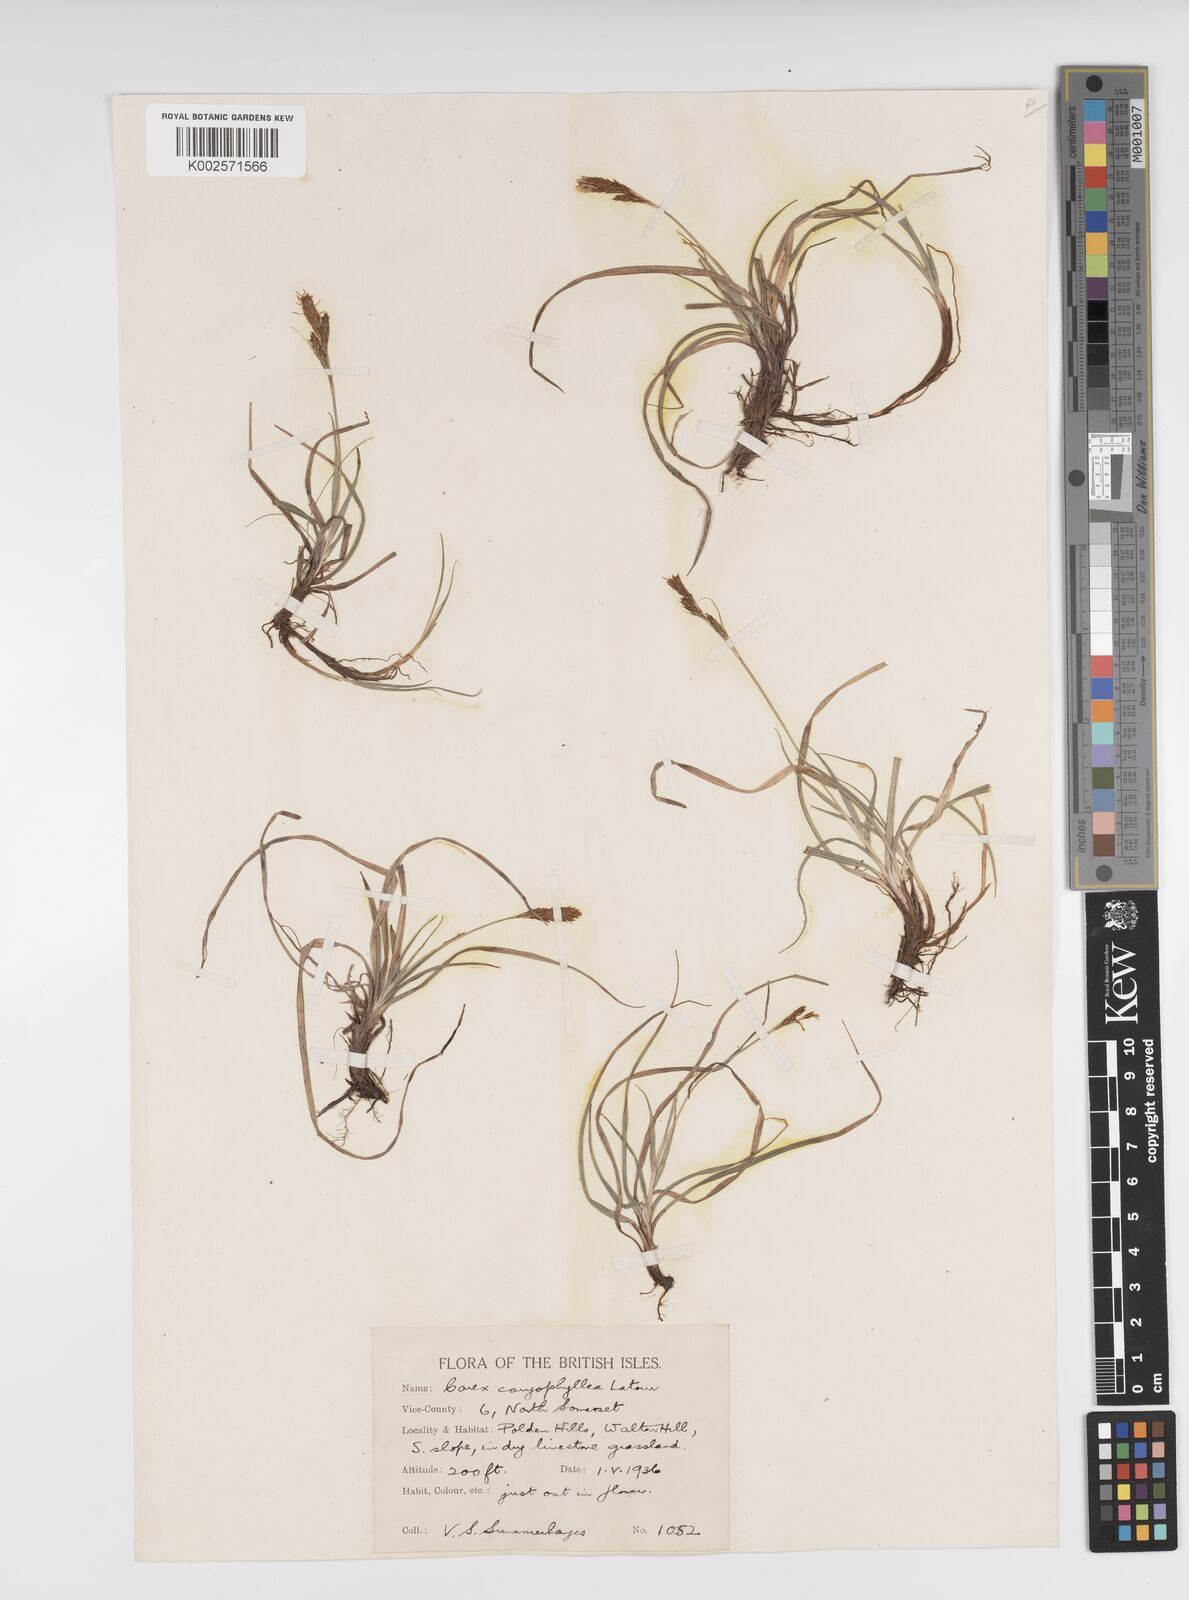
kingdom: Plantae
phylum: Tracheophyta
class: Liliopsida
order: Poales
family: Cyperaceae
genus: Carex
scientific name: Carex caryophyllea
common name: Spring sedge
